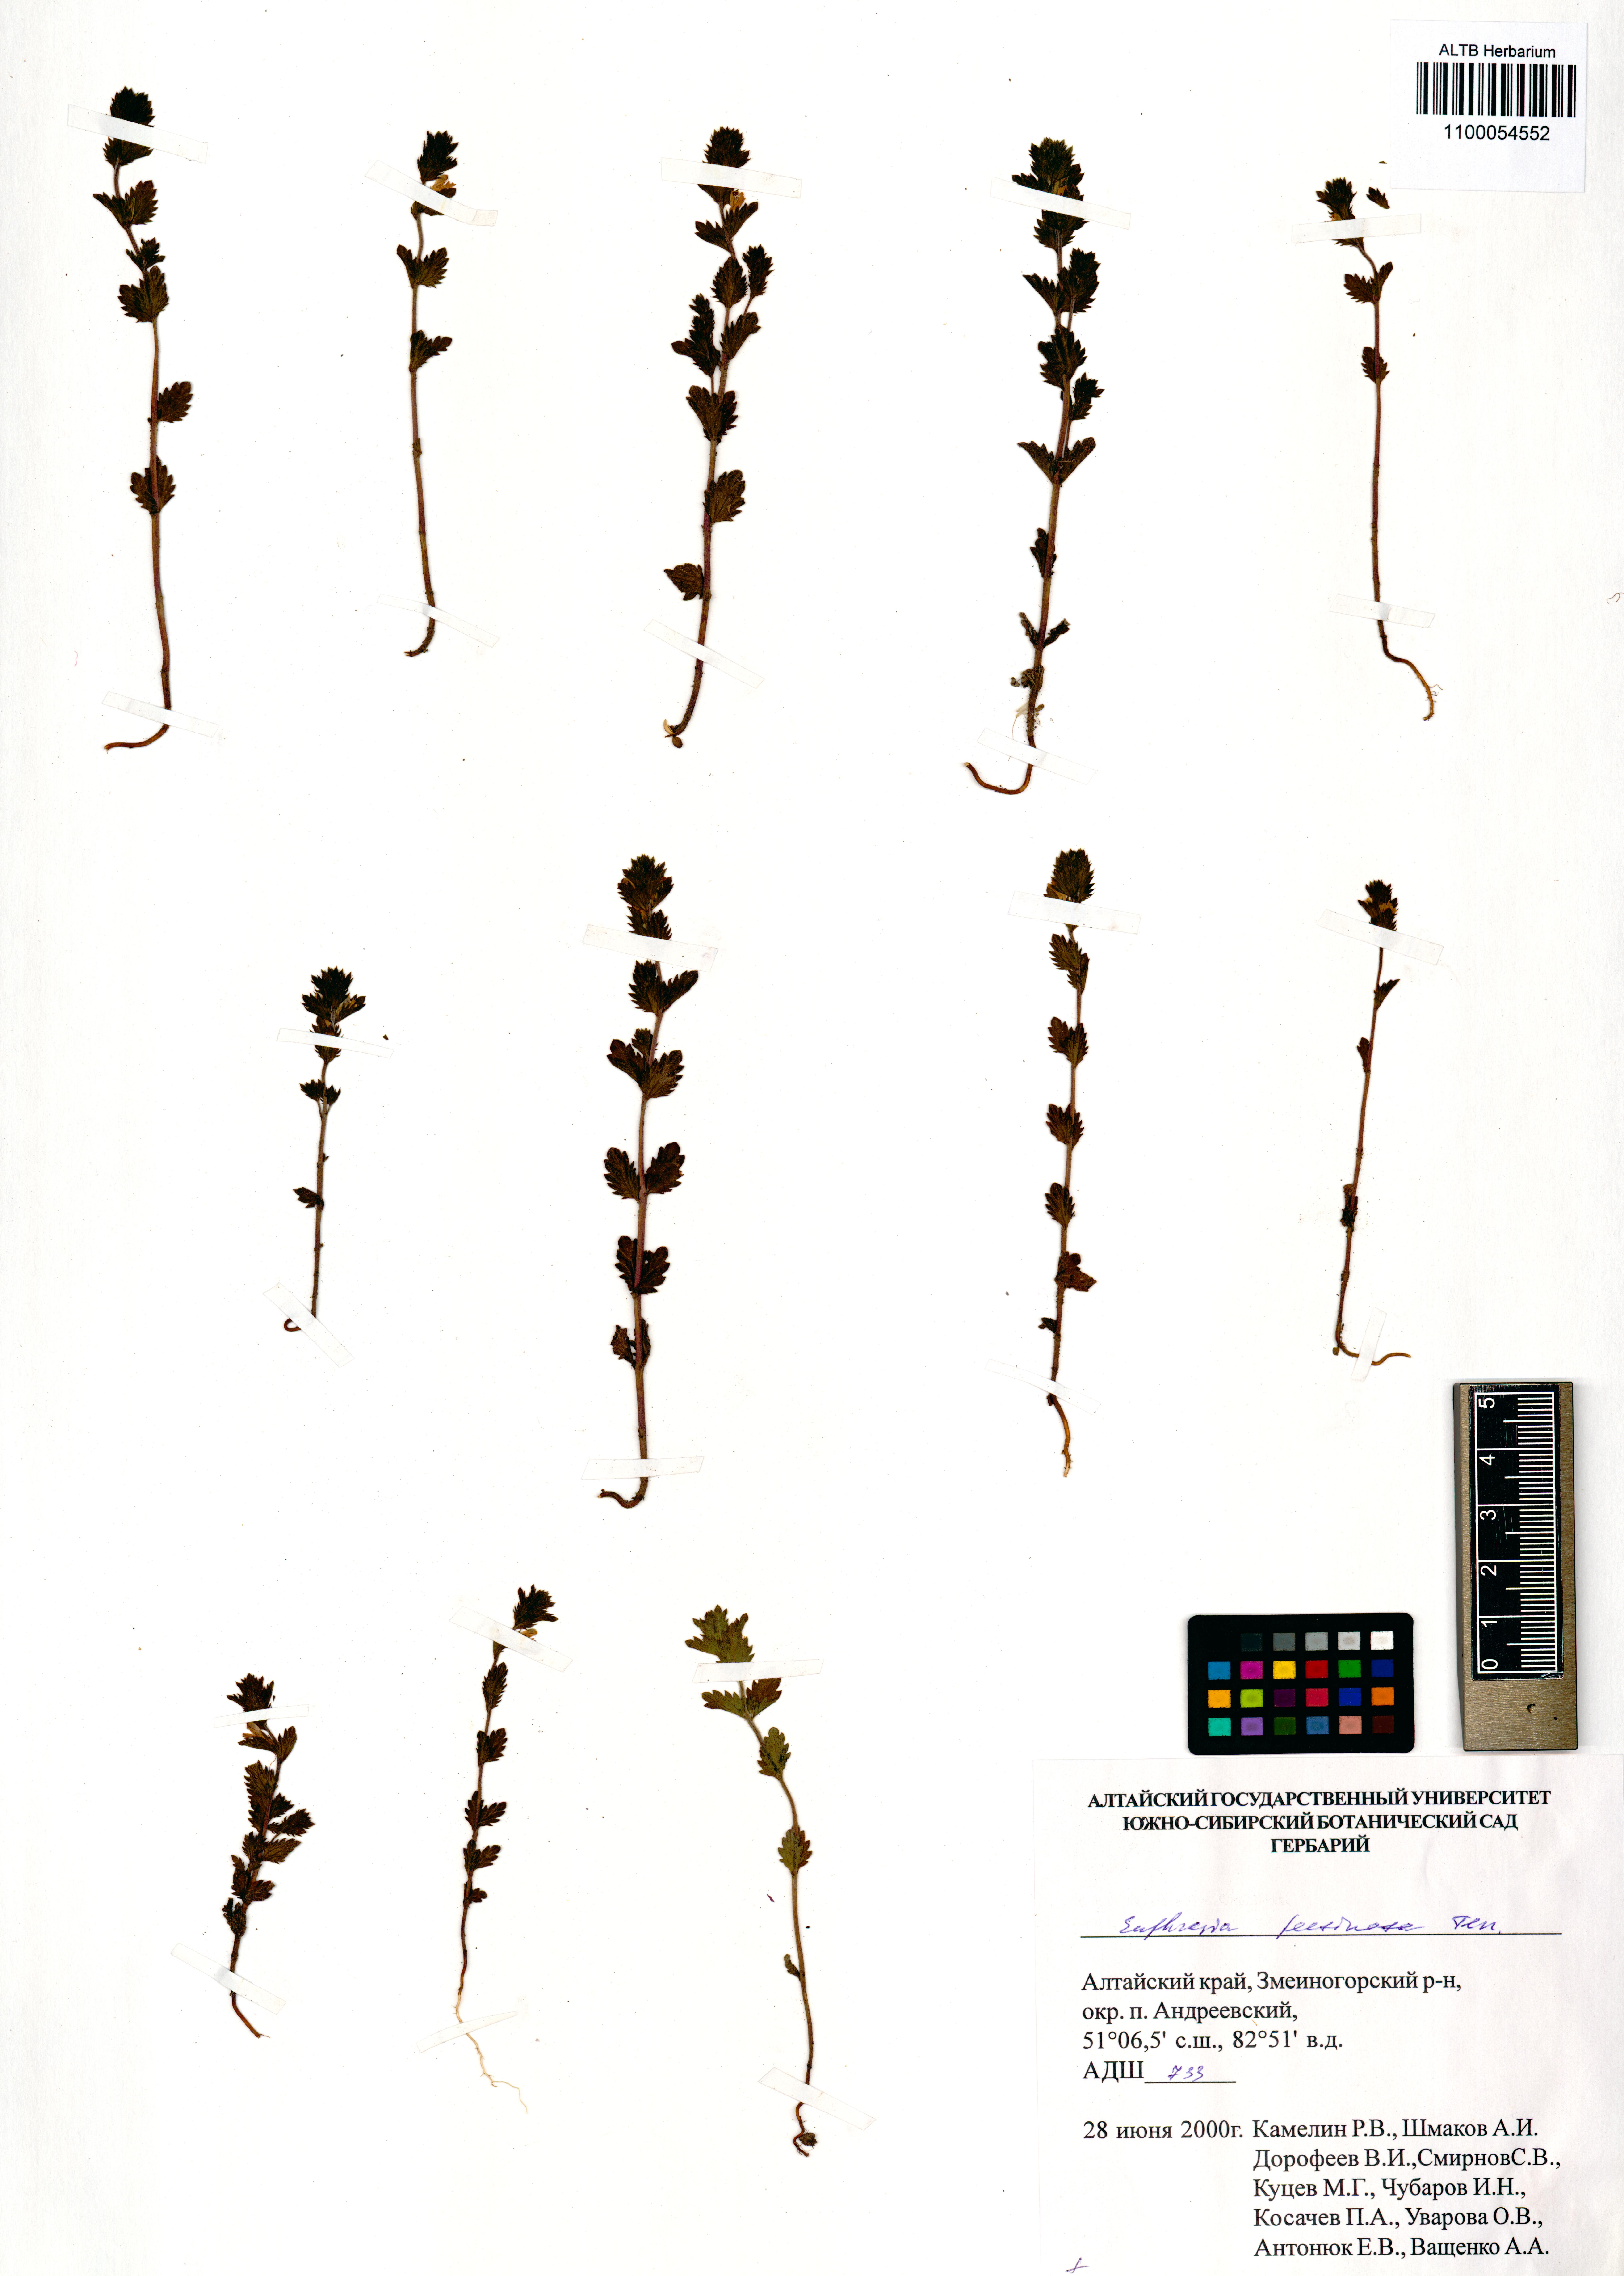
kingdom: Plantae
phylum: Tracheophyta
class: Magnoliopsida
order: Lamiales
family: Orobanchaceae
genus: Euphrasia
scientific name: Euphrasia pectinata
